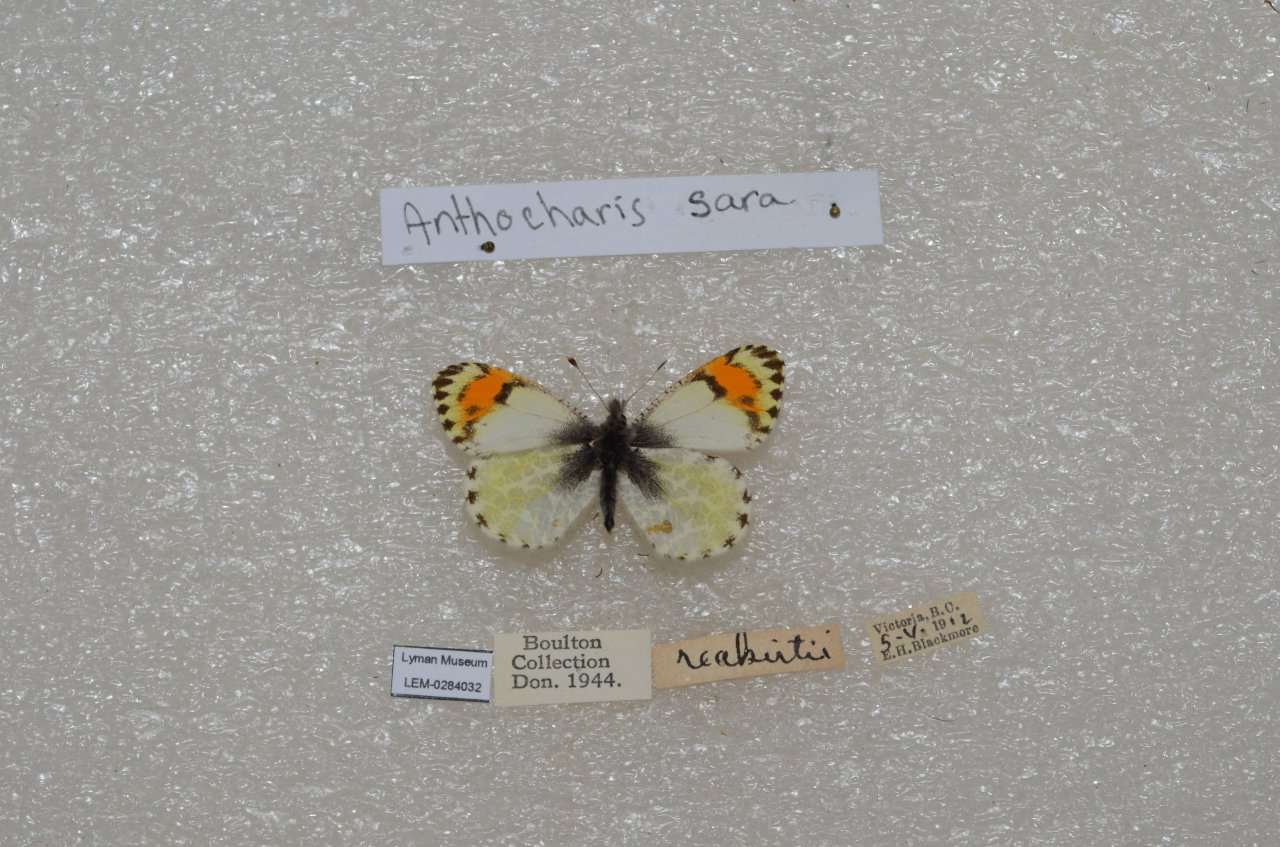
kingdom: Animalia
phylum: Arthropoda
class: Insecta
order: Lepidoptera
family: Pieridae
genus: Anthocharis
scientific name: Anthocharis sara
